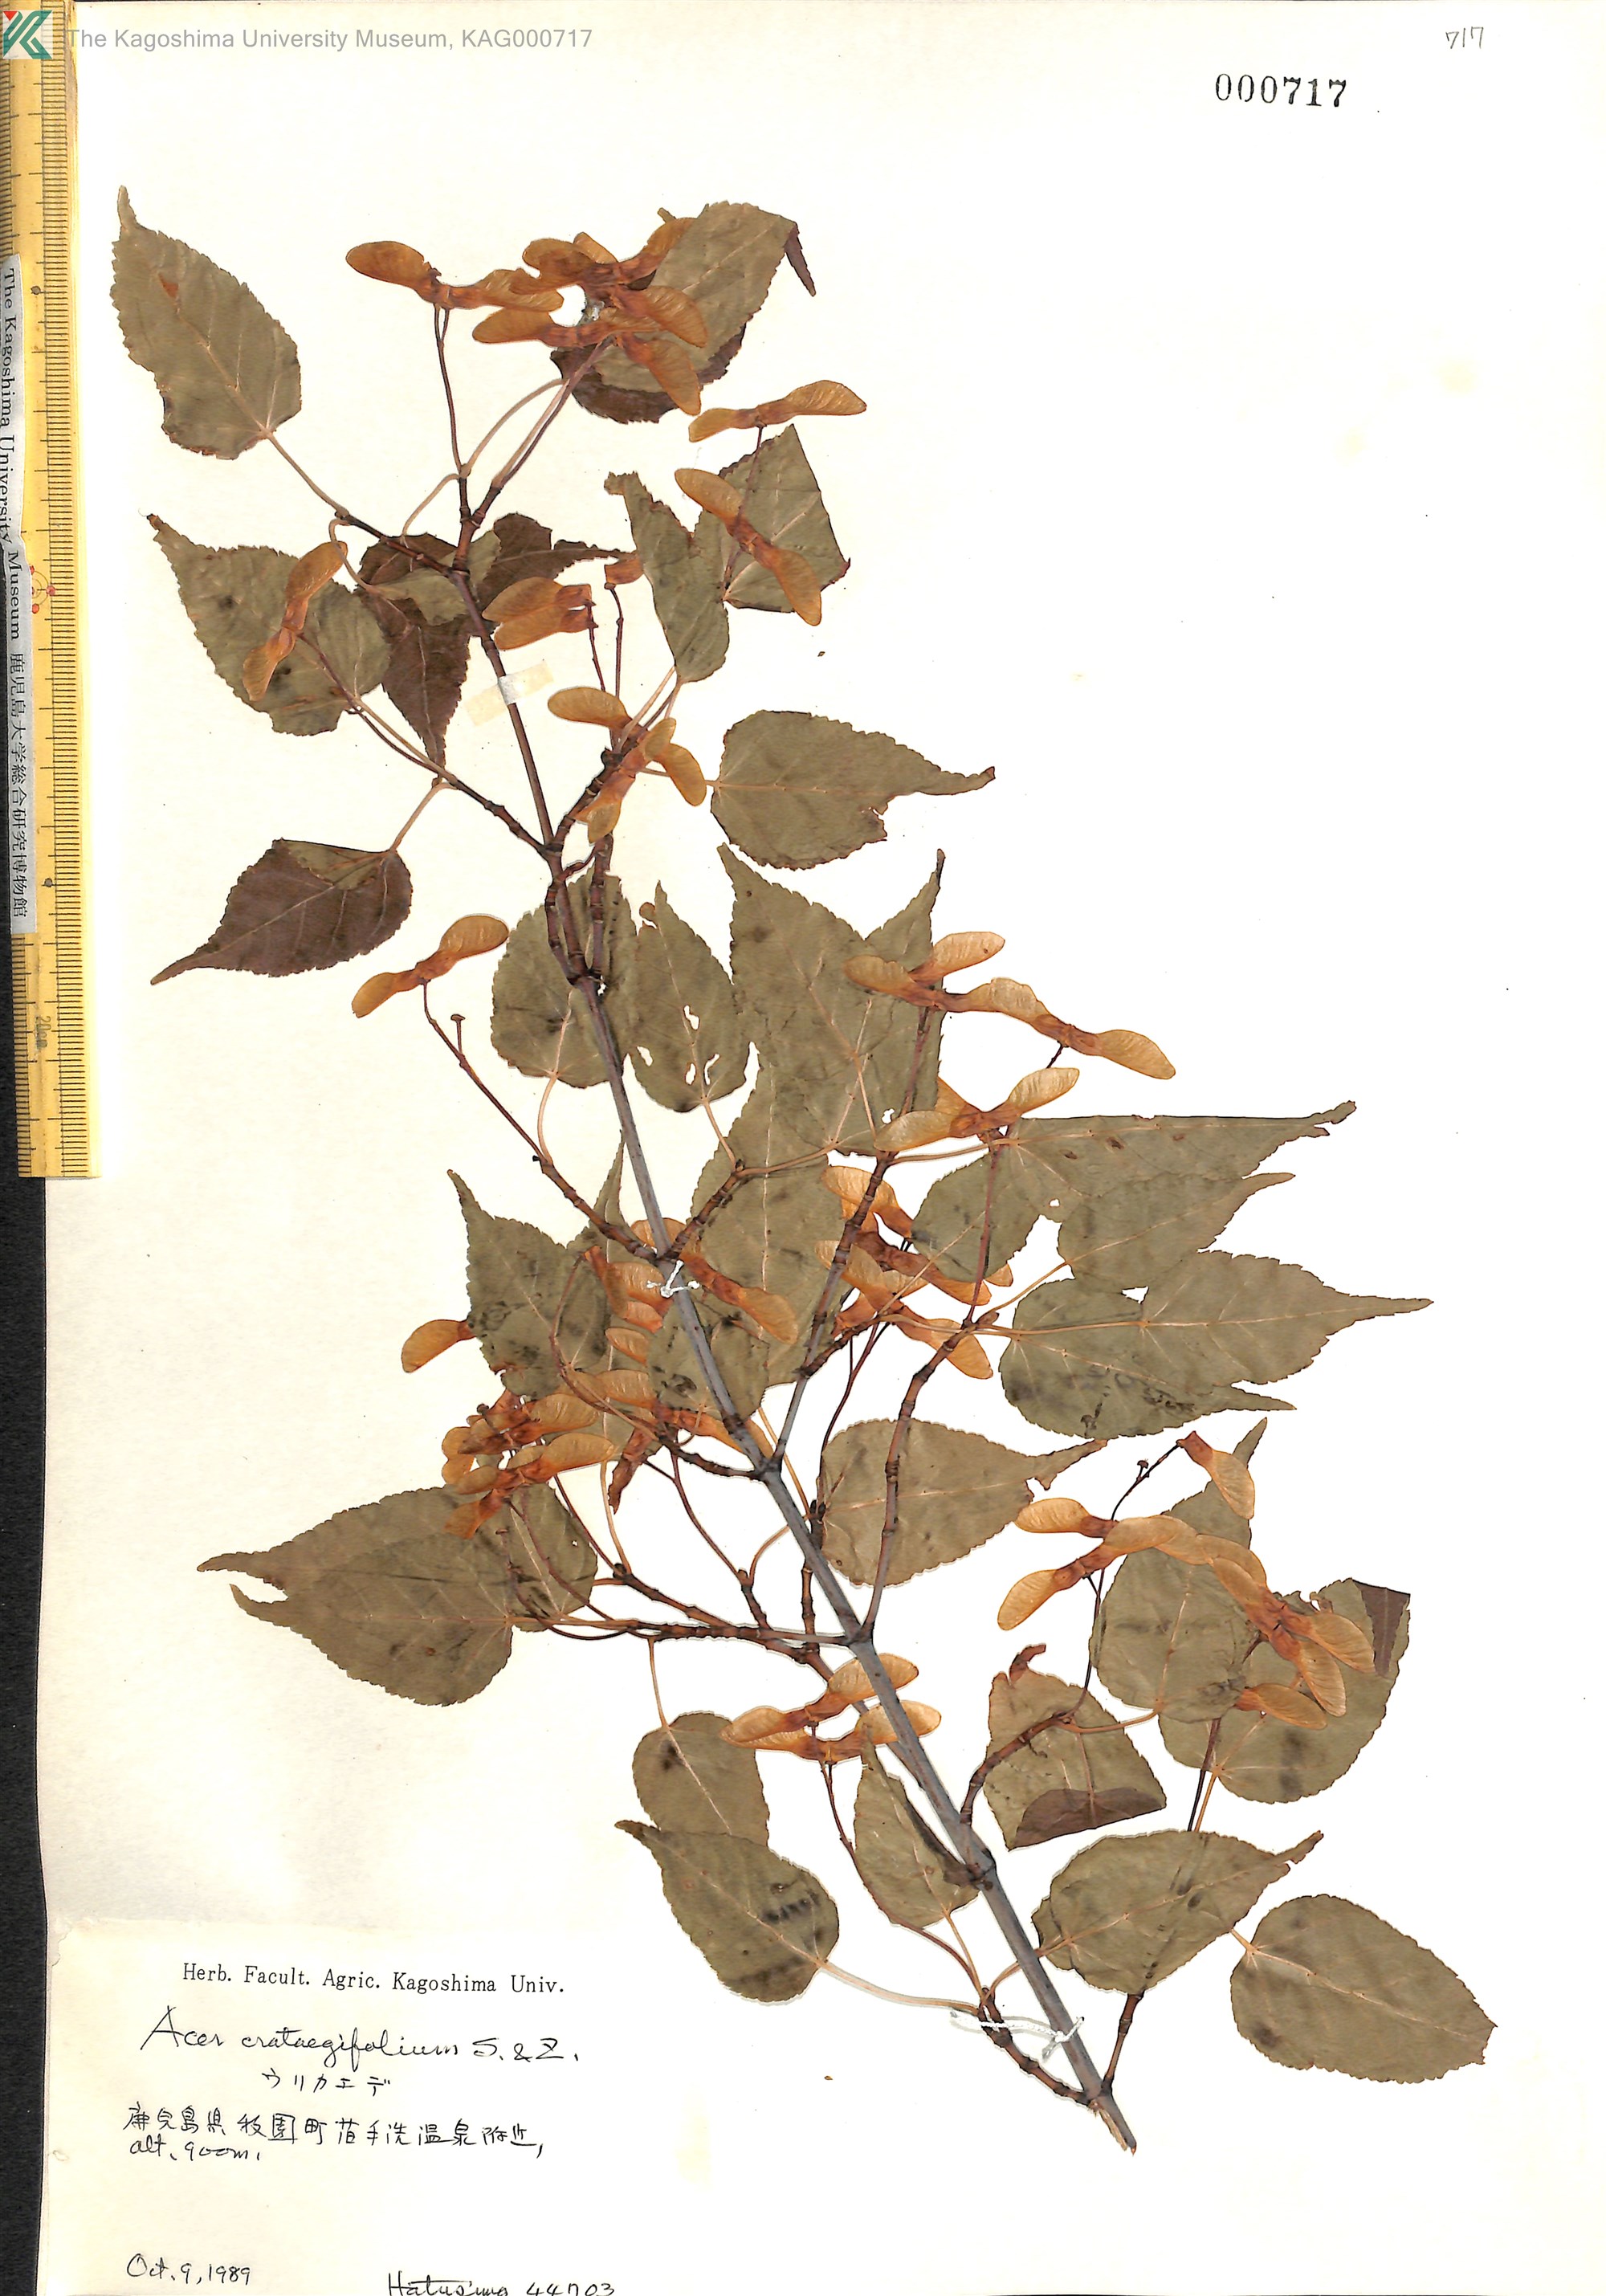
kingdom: Plantae
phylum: Tracheophyta
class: Magnoliopsida
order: Sapindales
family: Sapindaceae
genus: Acer
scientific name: Acer crataegifolium
